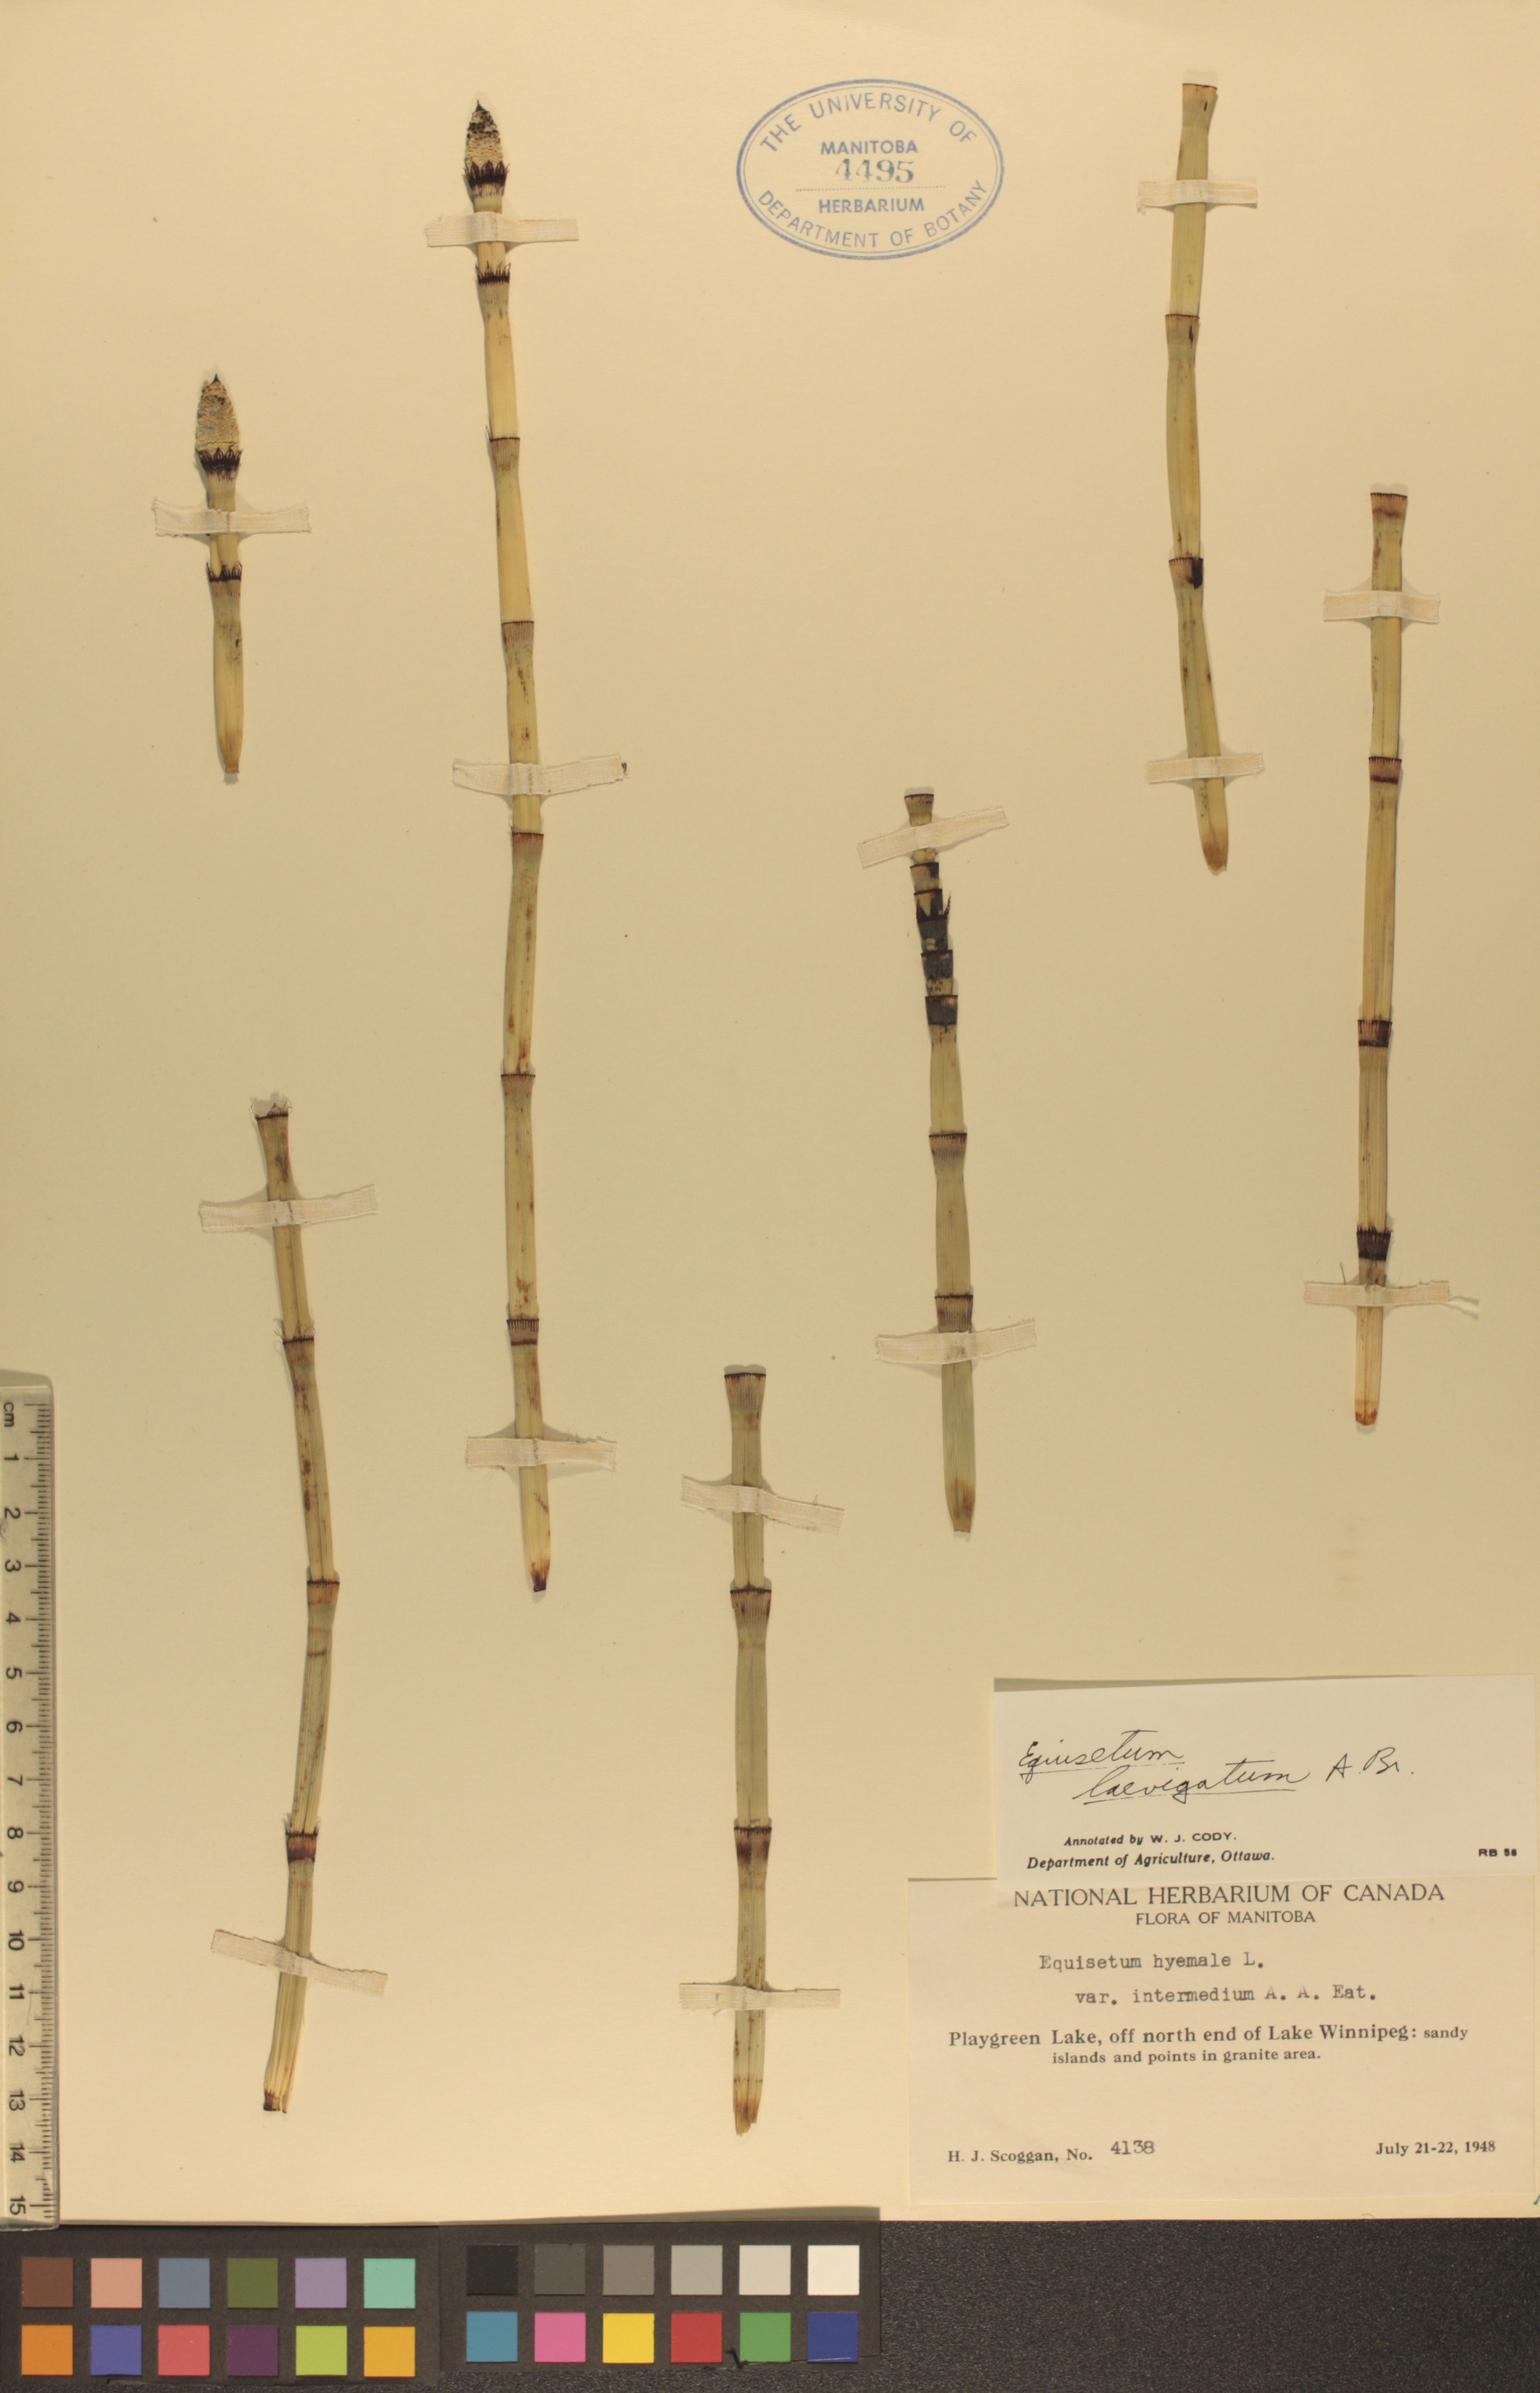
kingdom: Plantae
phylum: Tracheophyta
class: Polypodiopsida
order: Equisetales
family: Equisetaceae
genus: Equisetum
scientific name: Equisetum laevigatum
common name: Smooth scouring-rush
